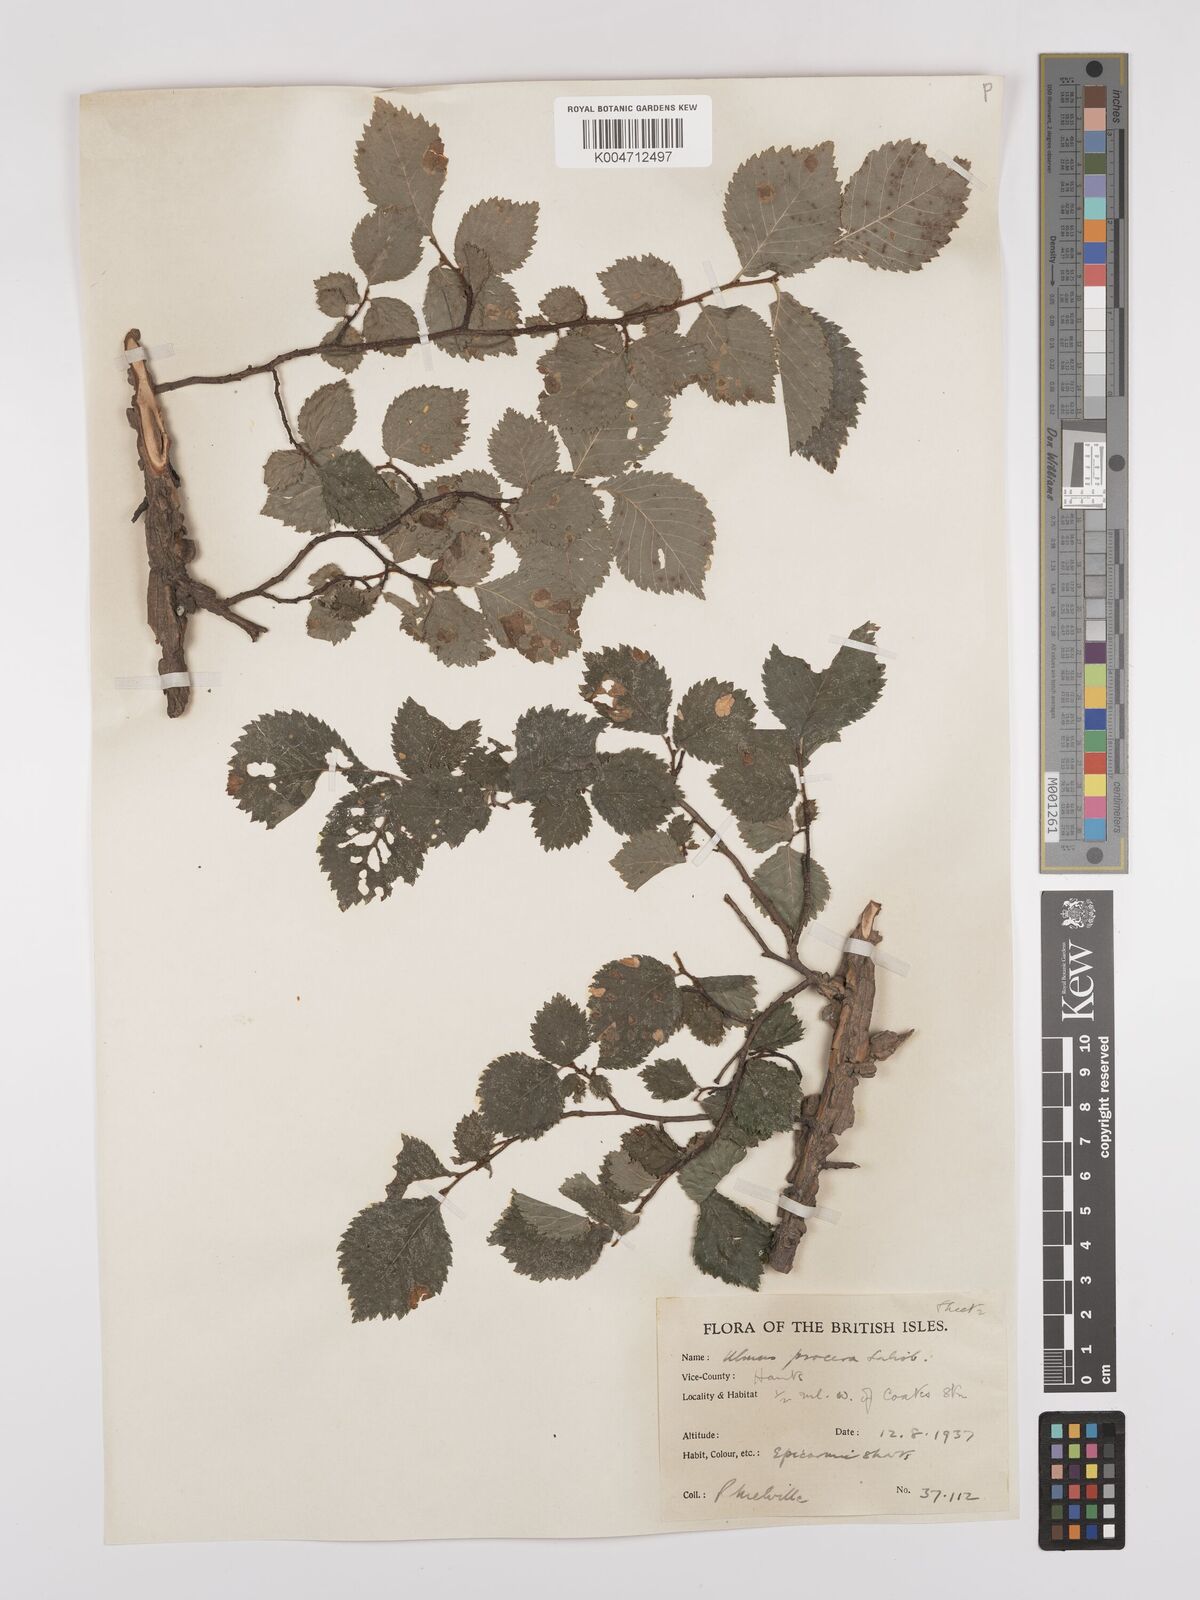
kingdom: Plantae
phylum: Tracheophyta
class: Magnoliopsida
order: Rosales
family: Ulmaceae
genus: Ulmus
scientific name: Ulmus minor
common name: Small-leaved elm
